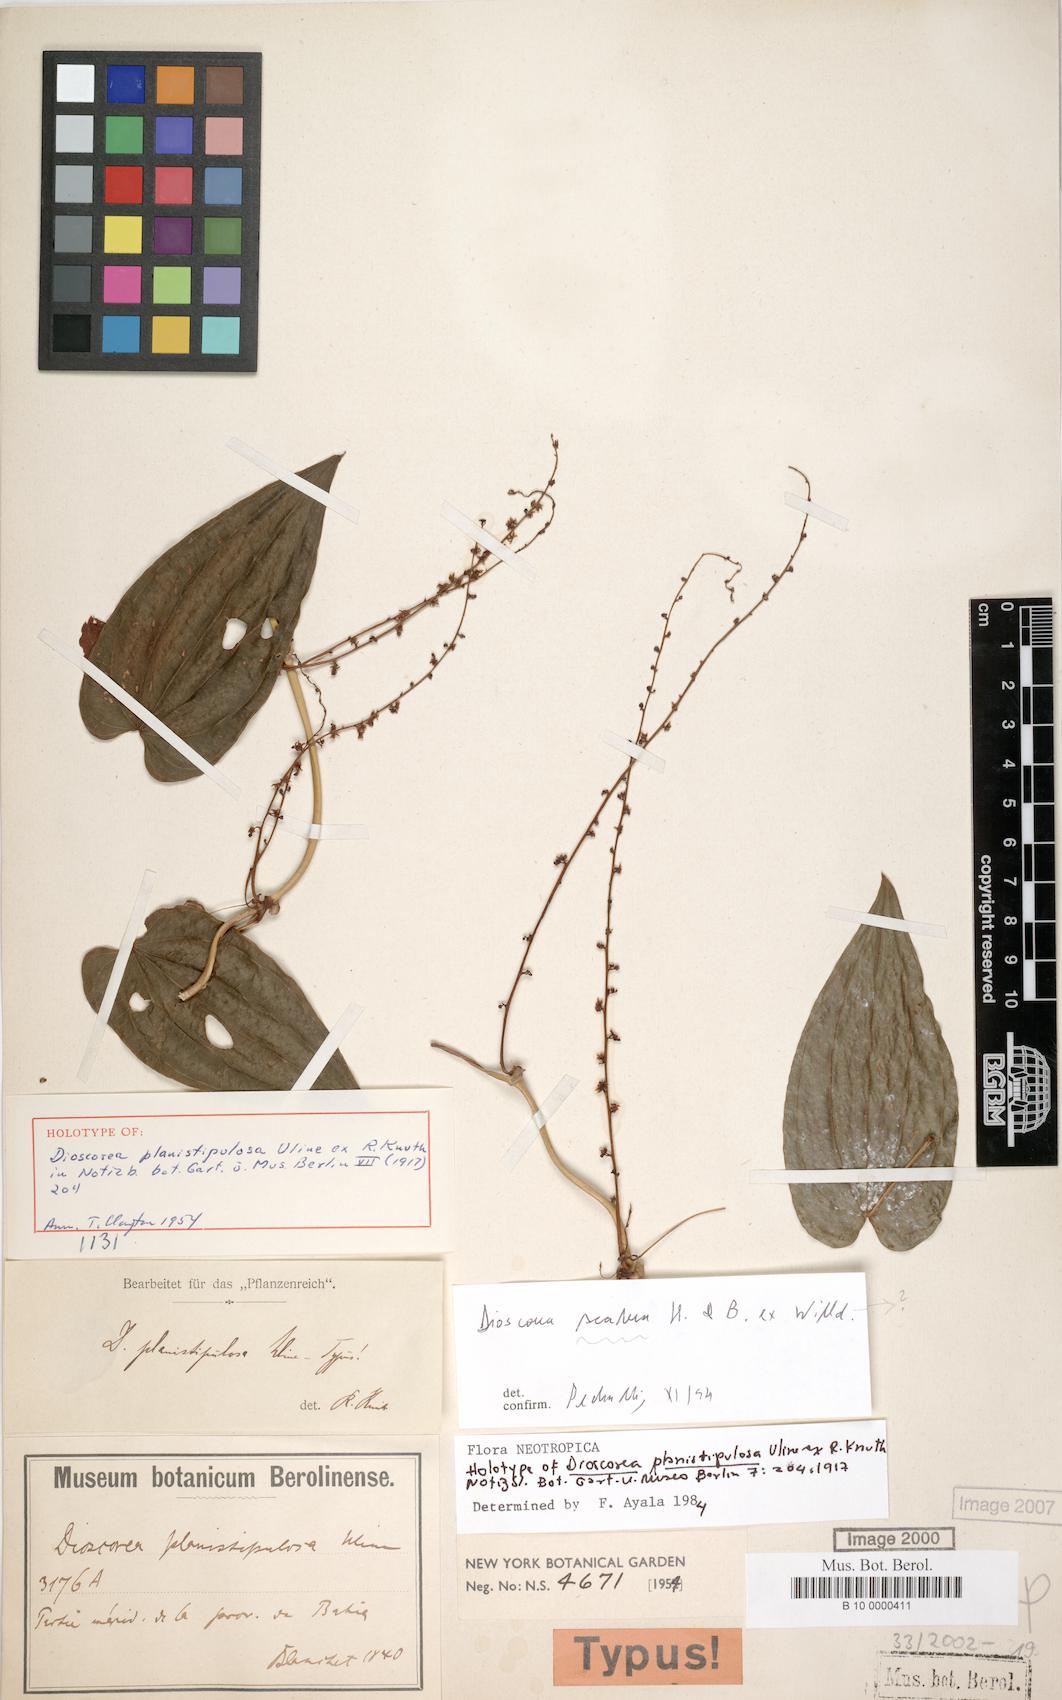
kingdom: Plantae
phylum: Tracheophyta
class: Liliopsida
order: Dioscoreales
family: Dioscoreaceae
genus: Dioscorea
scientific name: Dioscorea planistipulosa
